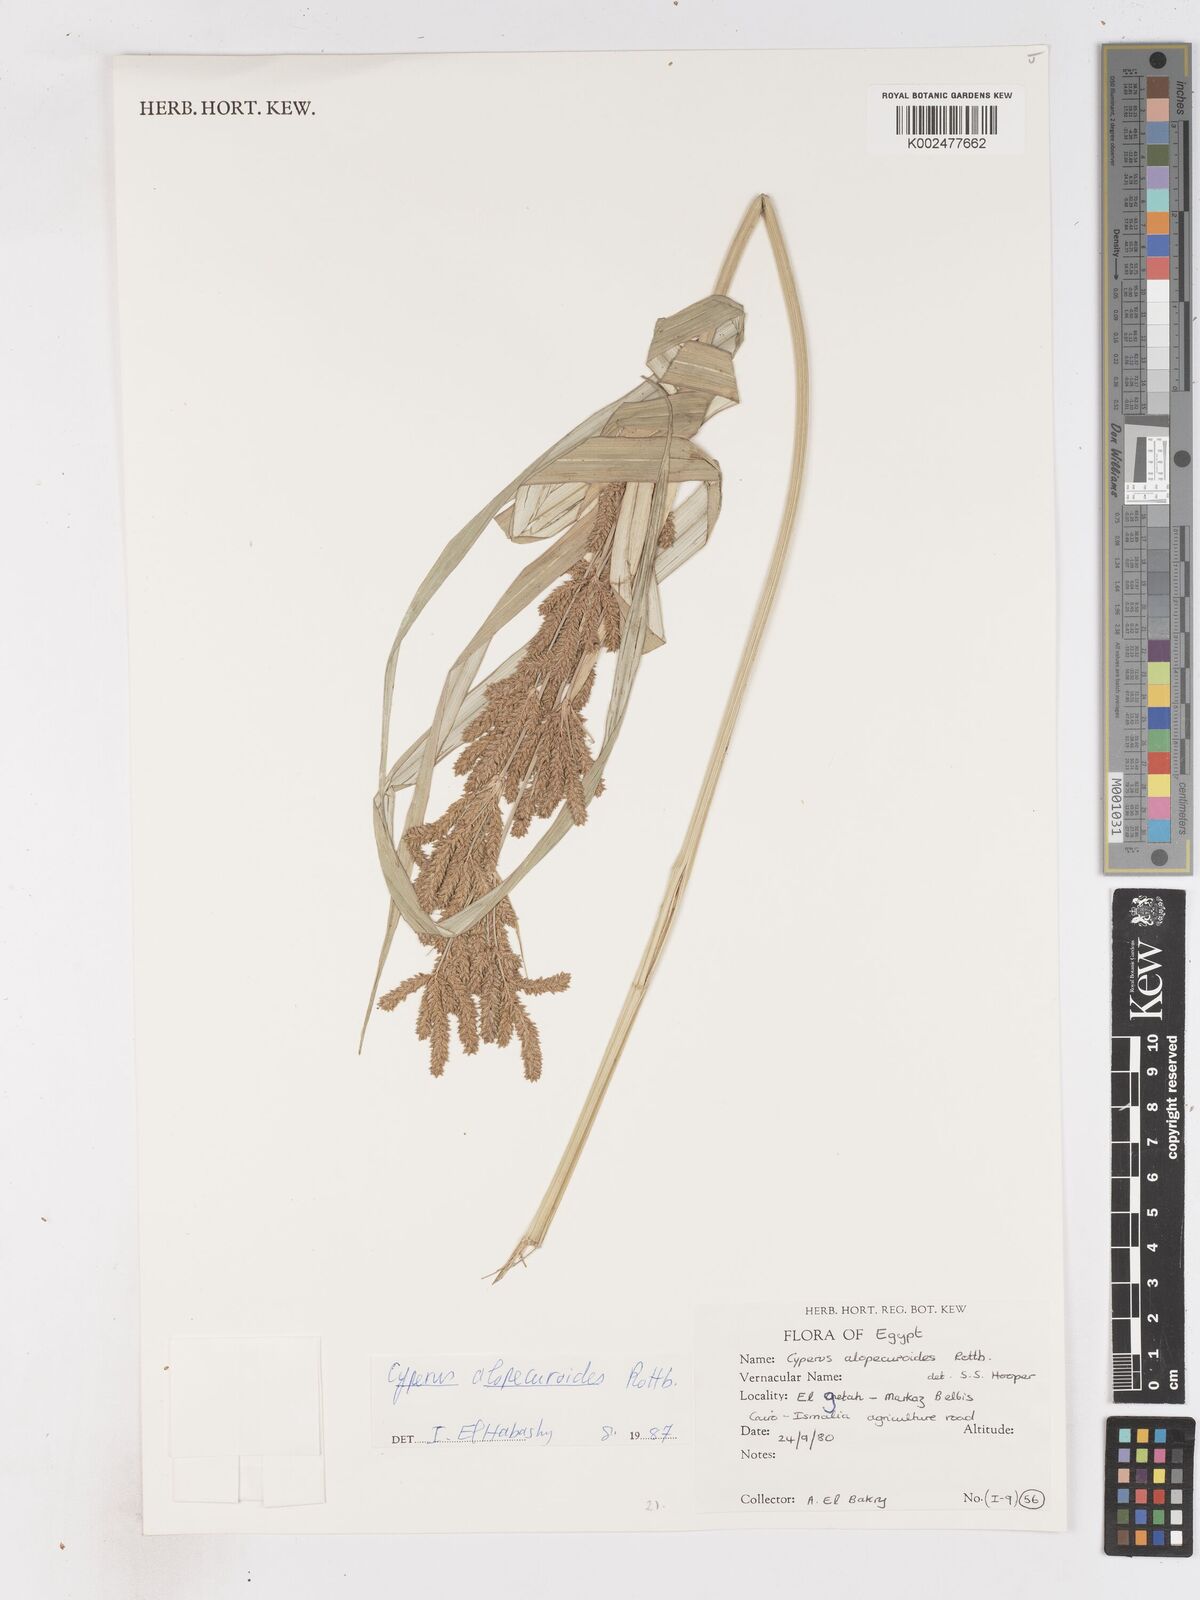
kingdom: Plantae
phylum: Tracheophyta
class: Liliopsida
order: Poales
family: Cyperaceae
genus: Cyperus
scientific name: Cyperus alopecuroides
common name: Foxtail flatsedge
